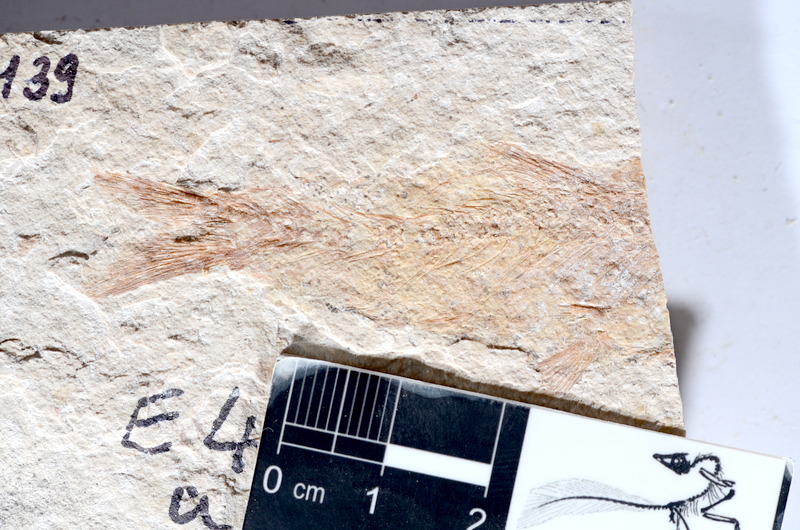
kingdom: Animalia
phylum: Chordata
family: Ascalaboidae
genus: Tharsis
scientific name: Tharsis dubius
